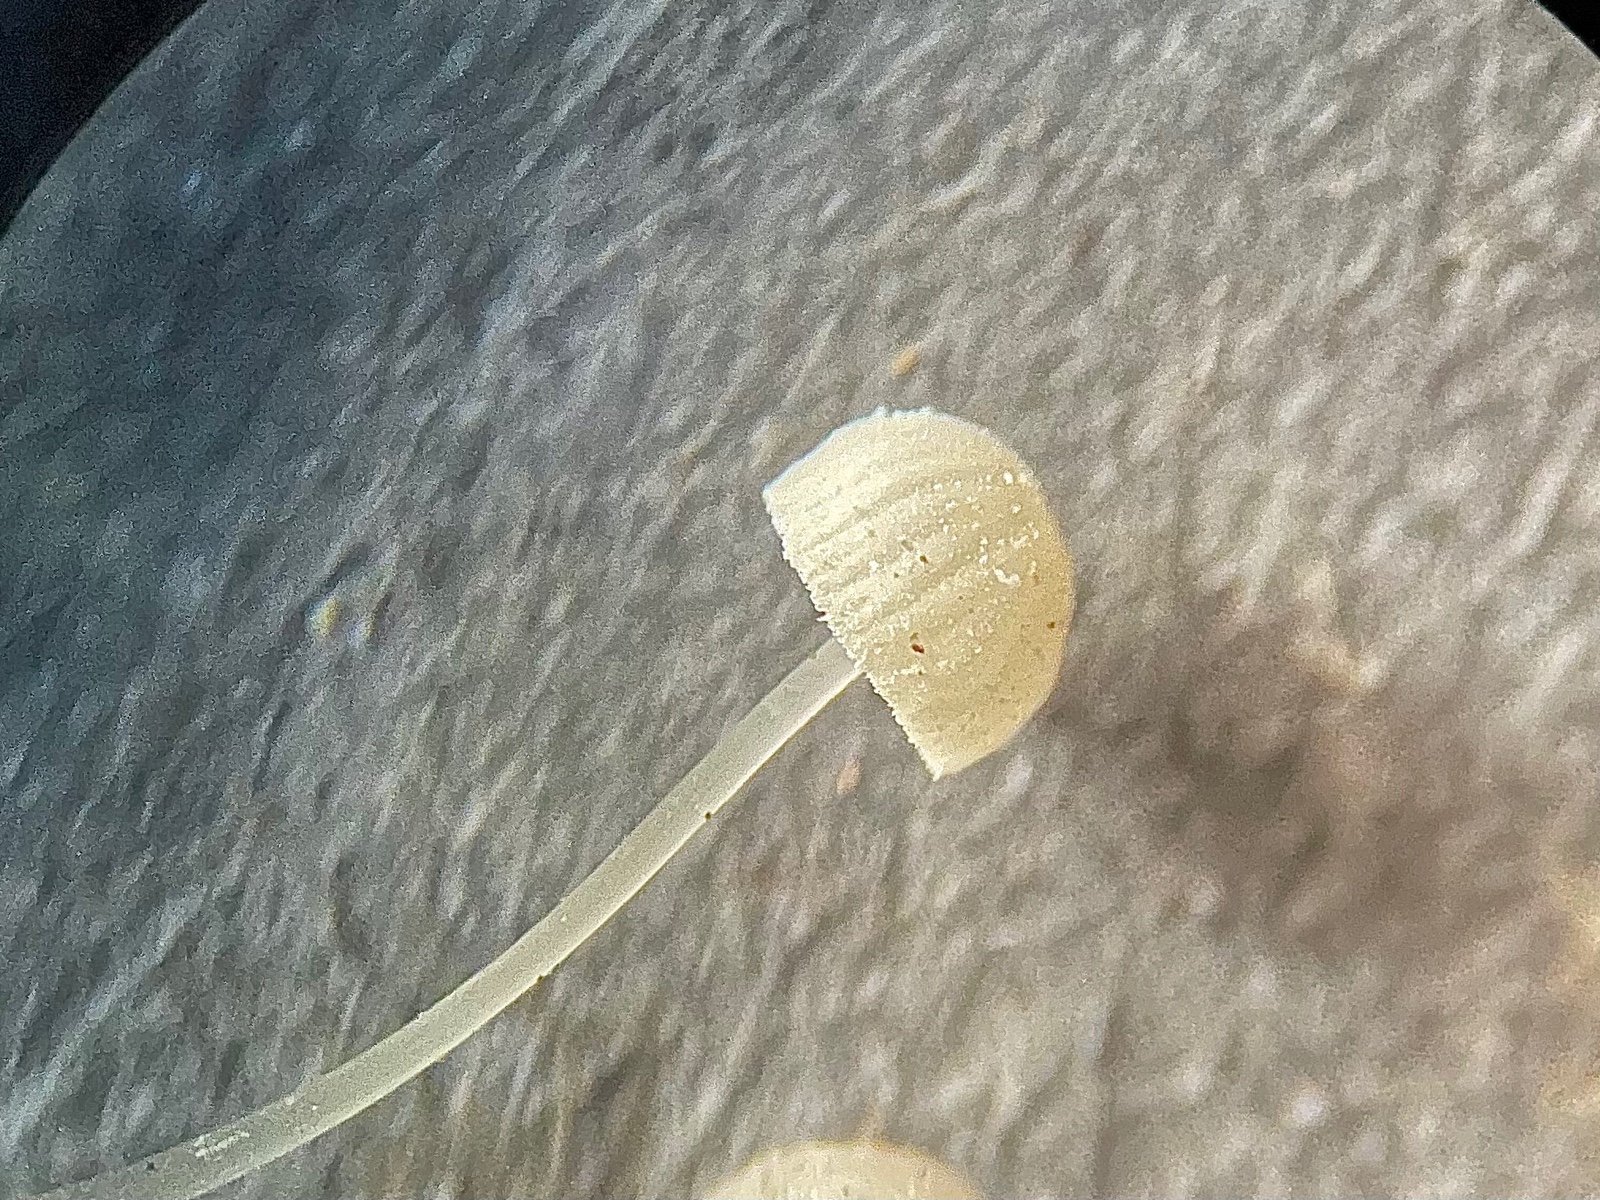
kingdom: Fungi
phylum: Basidiomycota
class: Agaricomycetes
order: Agaricales
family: Mycenaceae
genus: Mycena
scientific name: Mycena tenerrima
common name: pudret huesvamp
